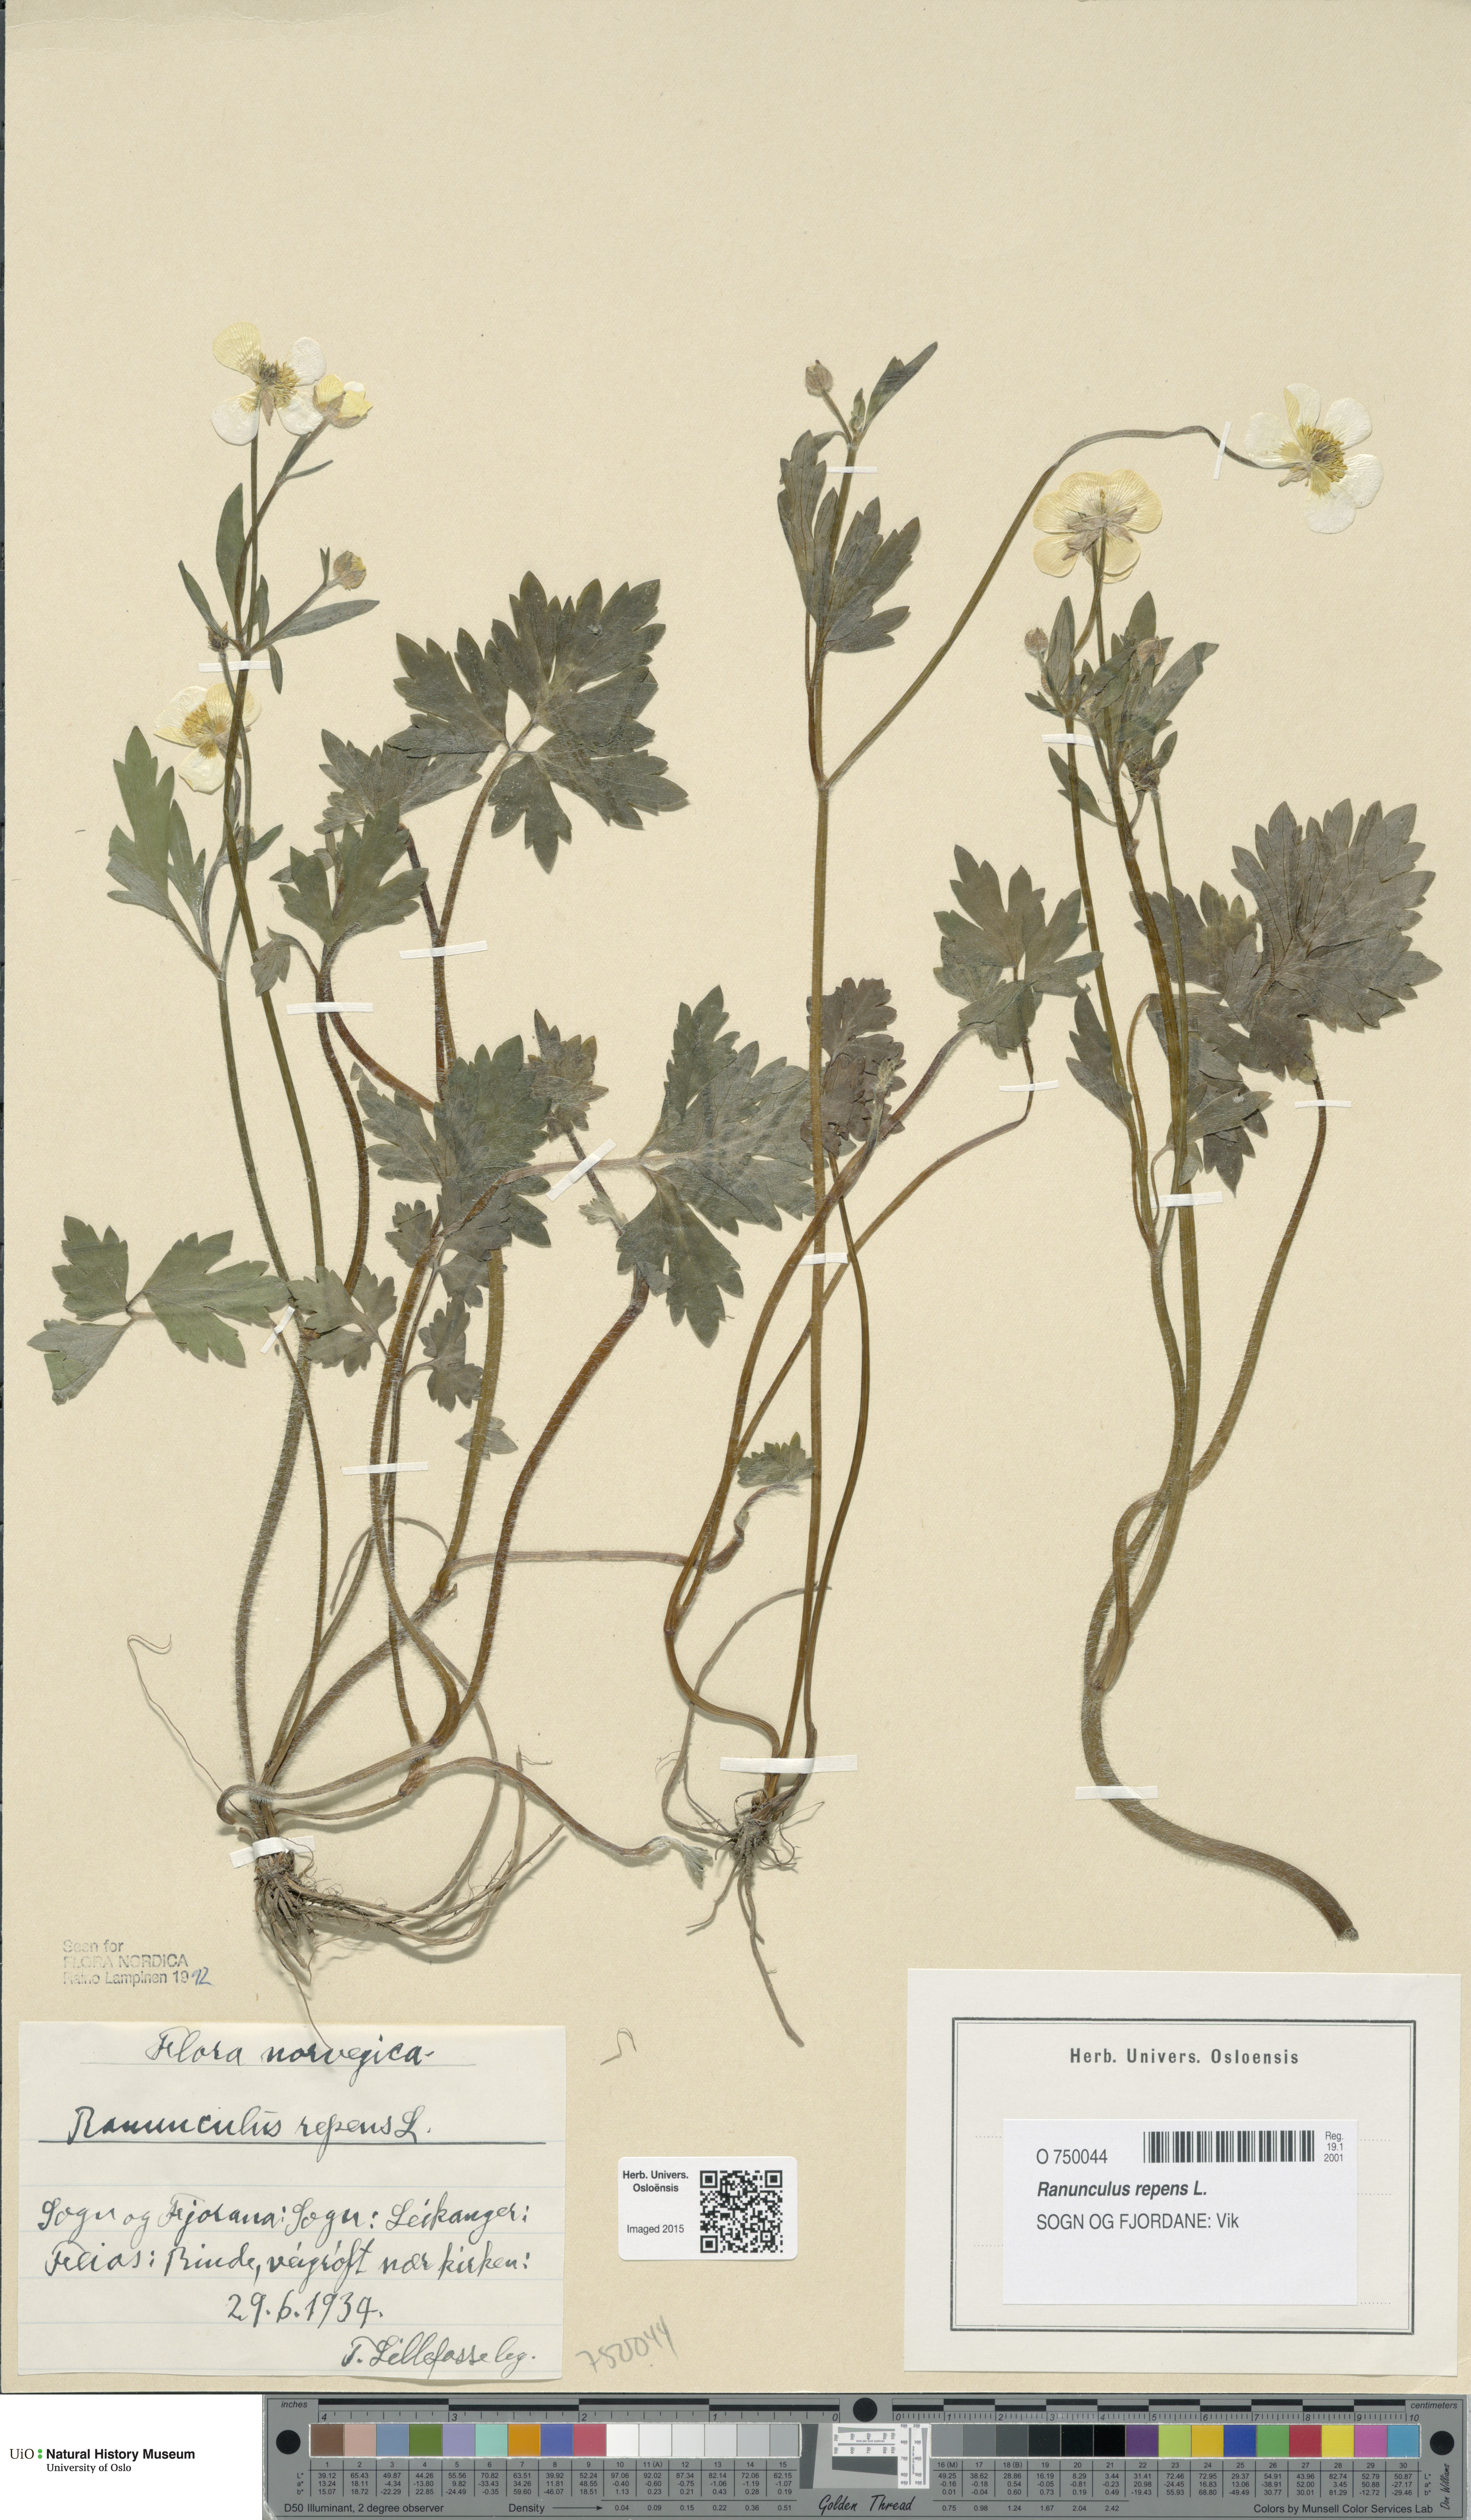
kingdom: Plantae
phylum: Tracheophyta
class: Magnoliopsida
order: Ranunculales
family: Ranunculaceae
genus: Ranunculus
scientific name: Ranunculus repens
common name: Creeping buttercup
